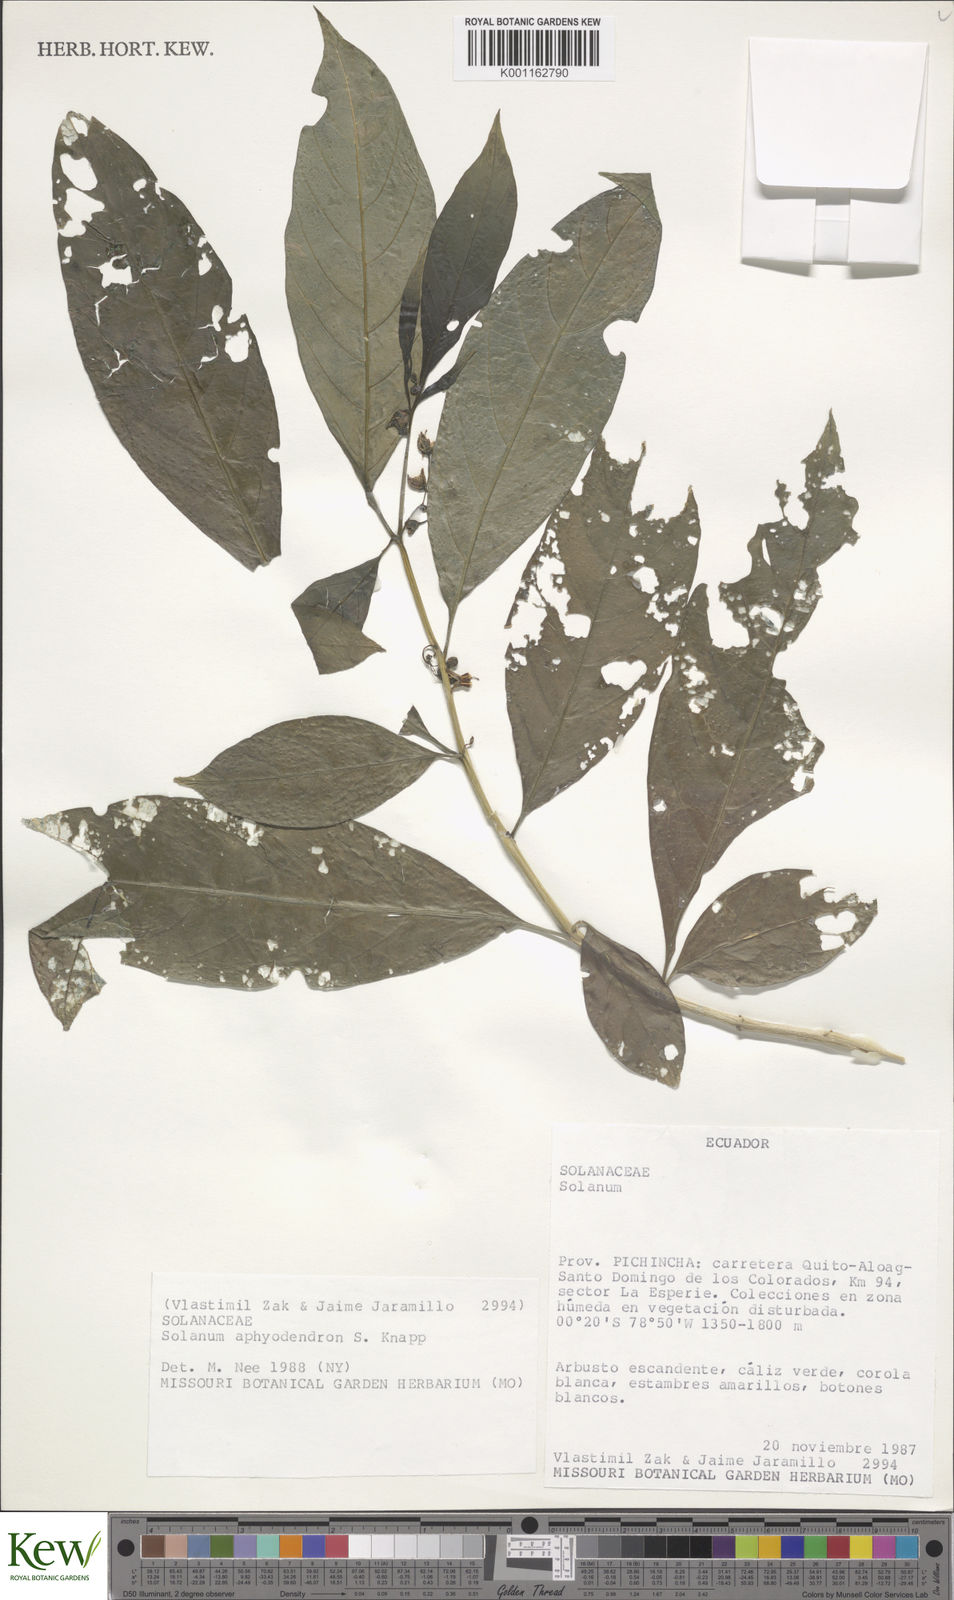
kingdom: Plantae
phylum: Tracheophyta
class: Magnoliopsida
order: Solanales
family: Solanaceae
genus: Solanum
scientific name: Solanum aphyodendron
